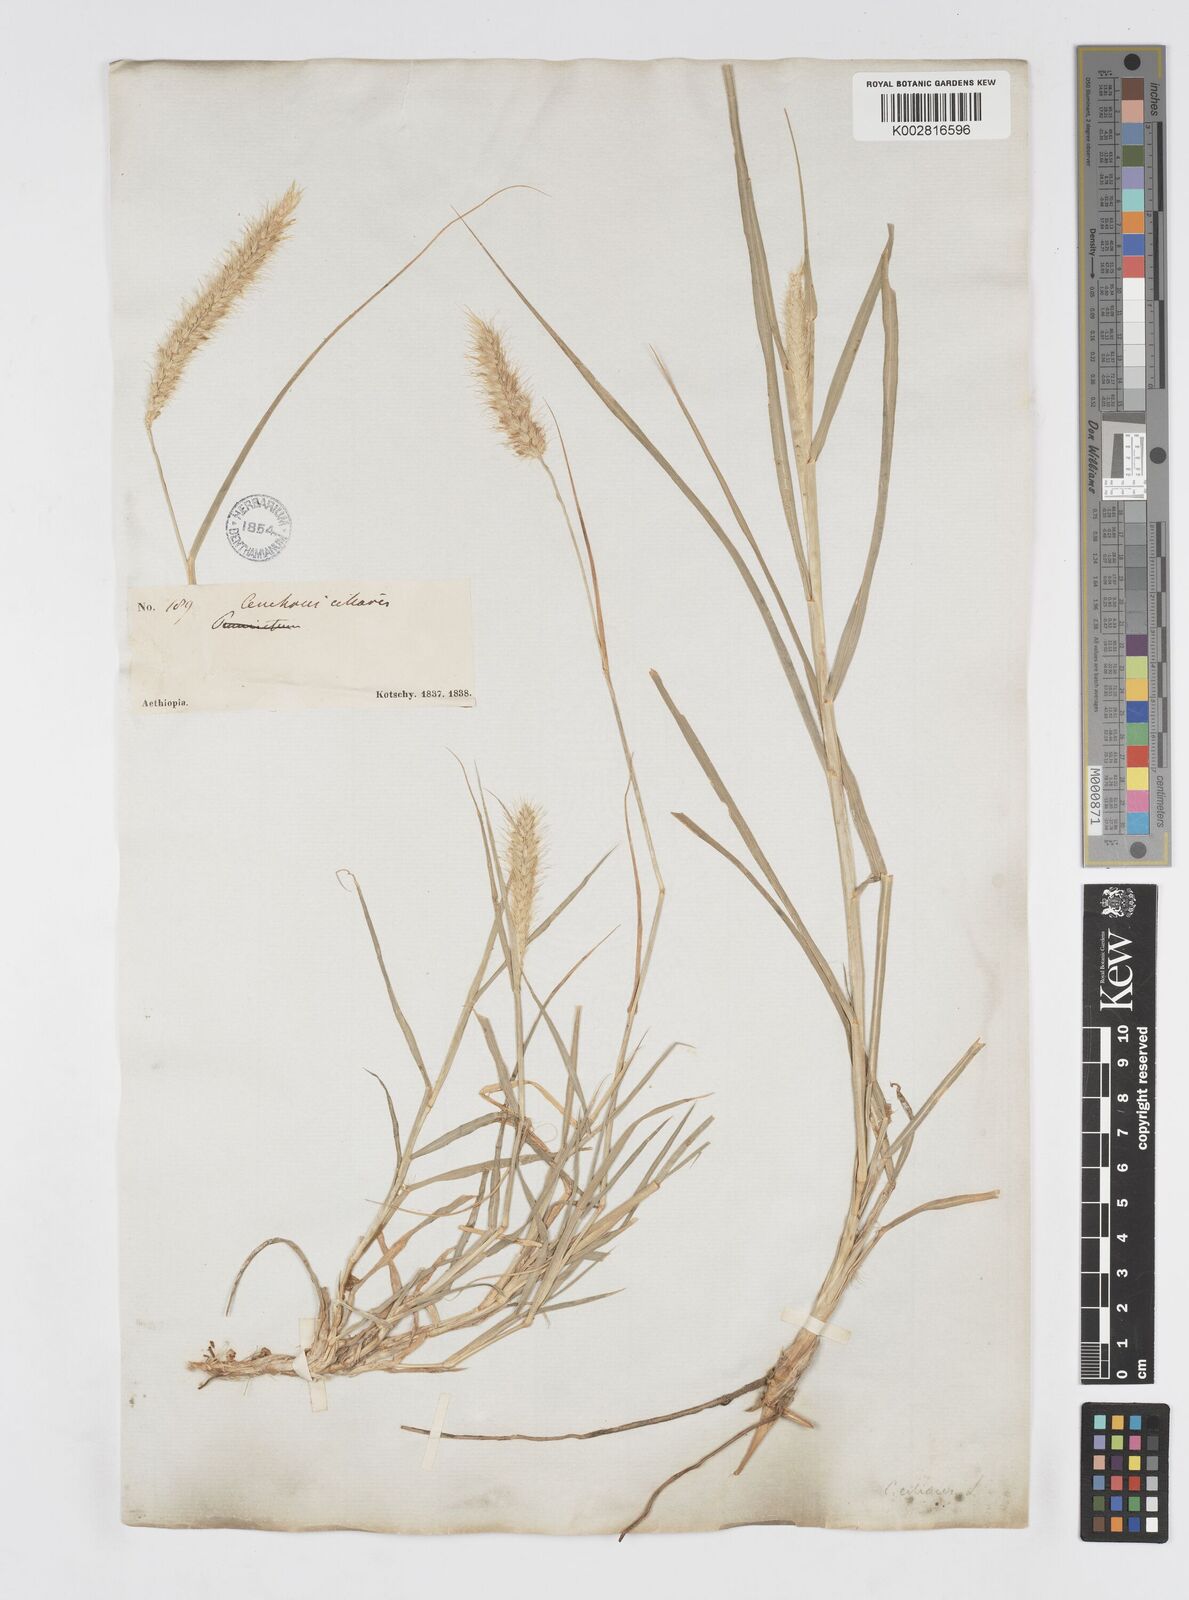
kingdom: Plantae
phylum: Tracheophyta
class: Liliopsida
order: Poales
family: Poaceae
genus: Cenchrus
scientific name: Cenchrus ciliaris
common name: Buffelgrass
